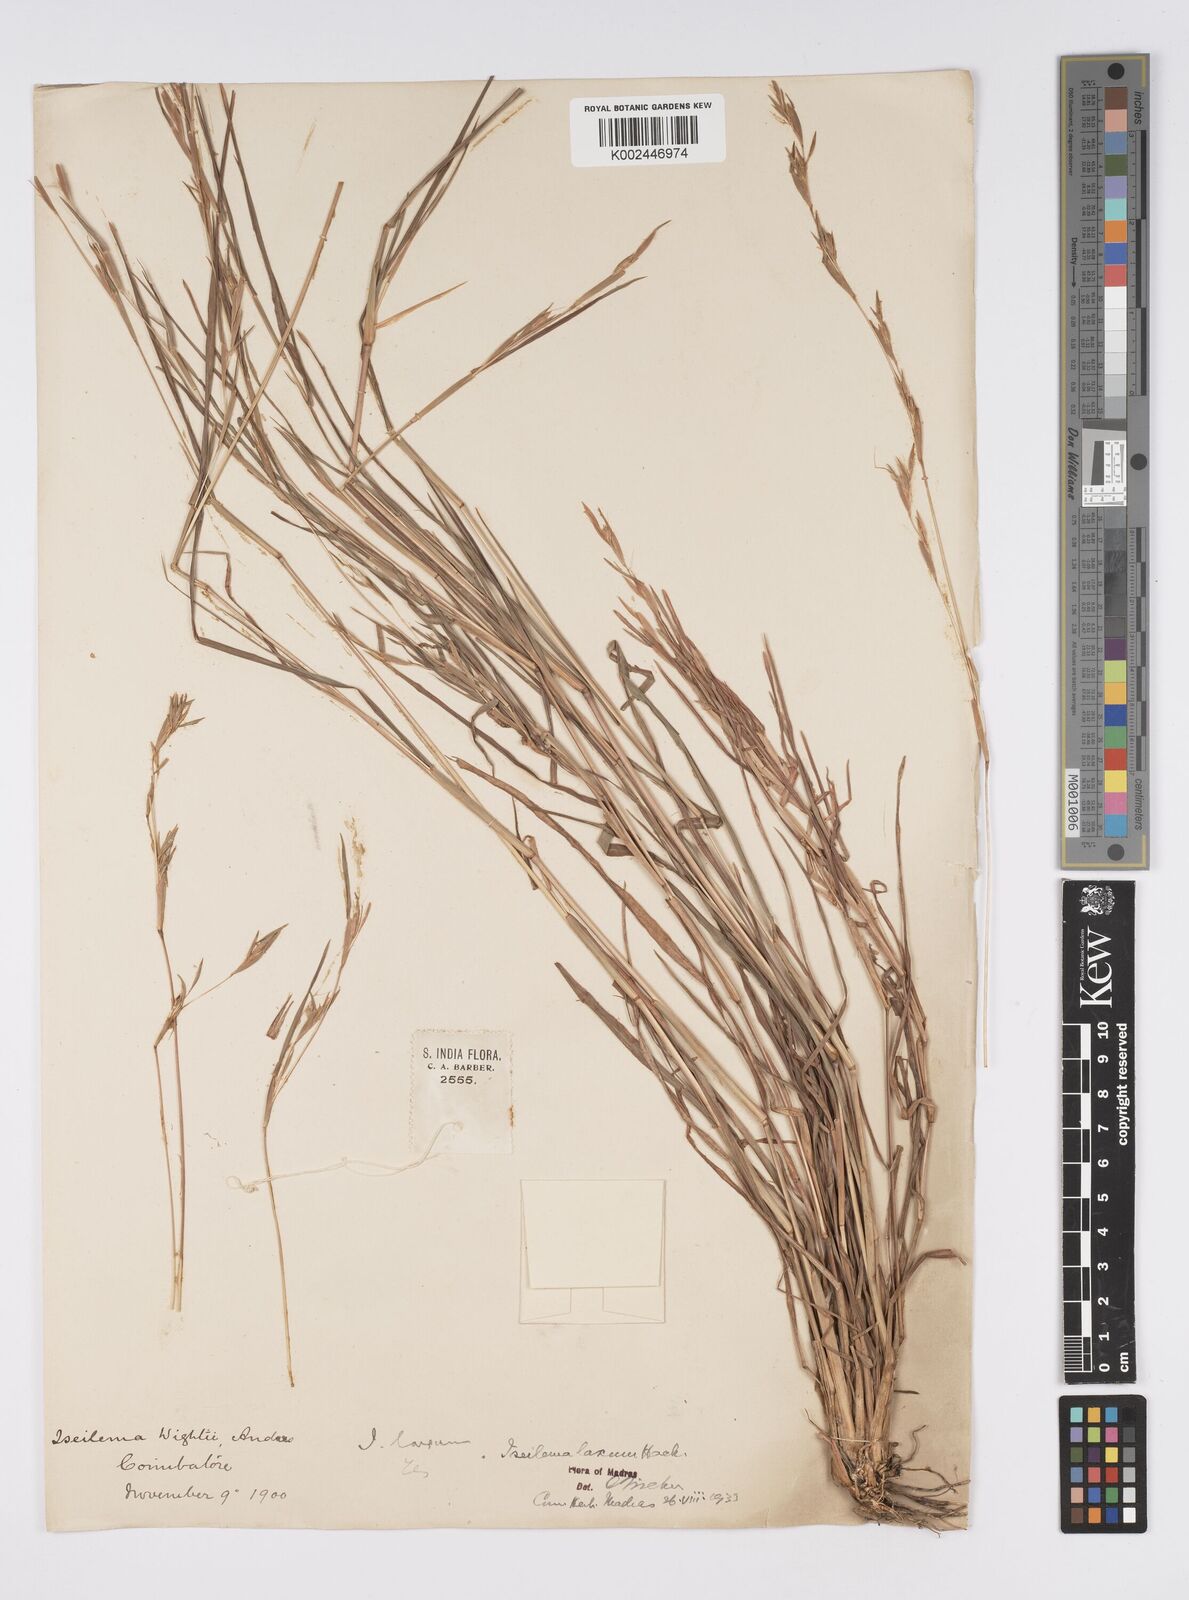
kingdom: Plantae
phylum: Tracheophyta
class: Liliopsida
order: Poales
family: Poaceae
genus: Iseilema
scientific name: Iseilema prostratum
